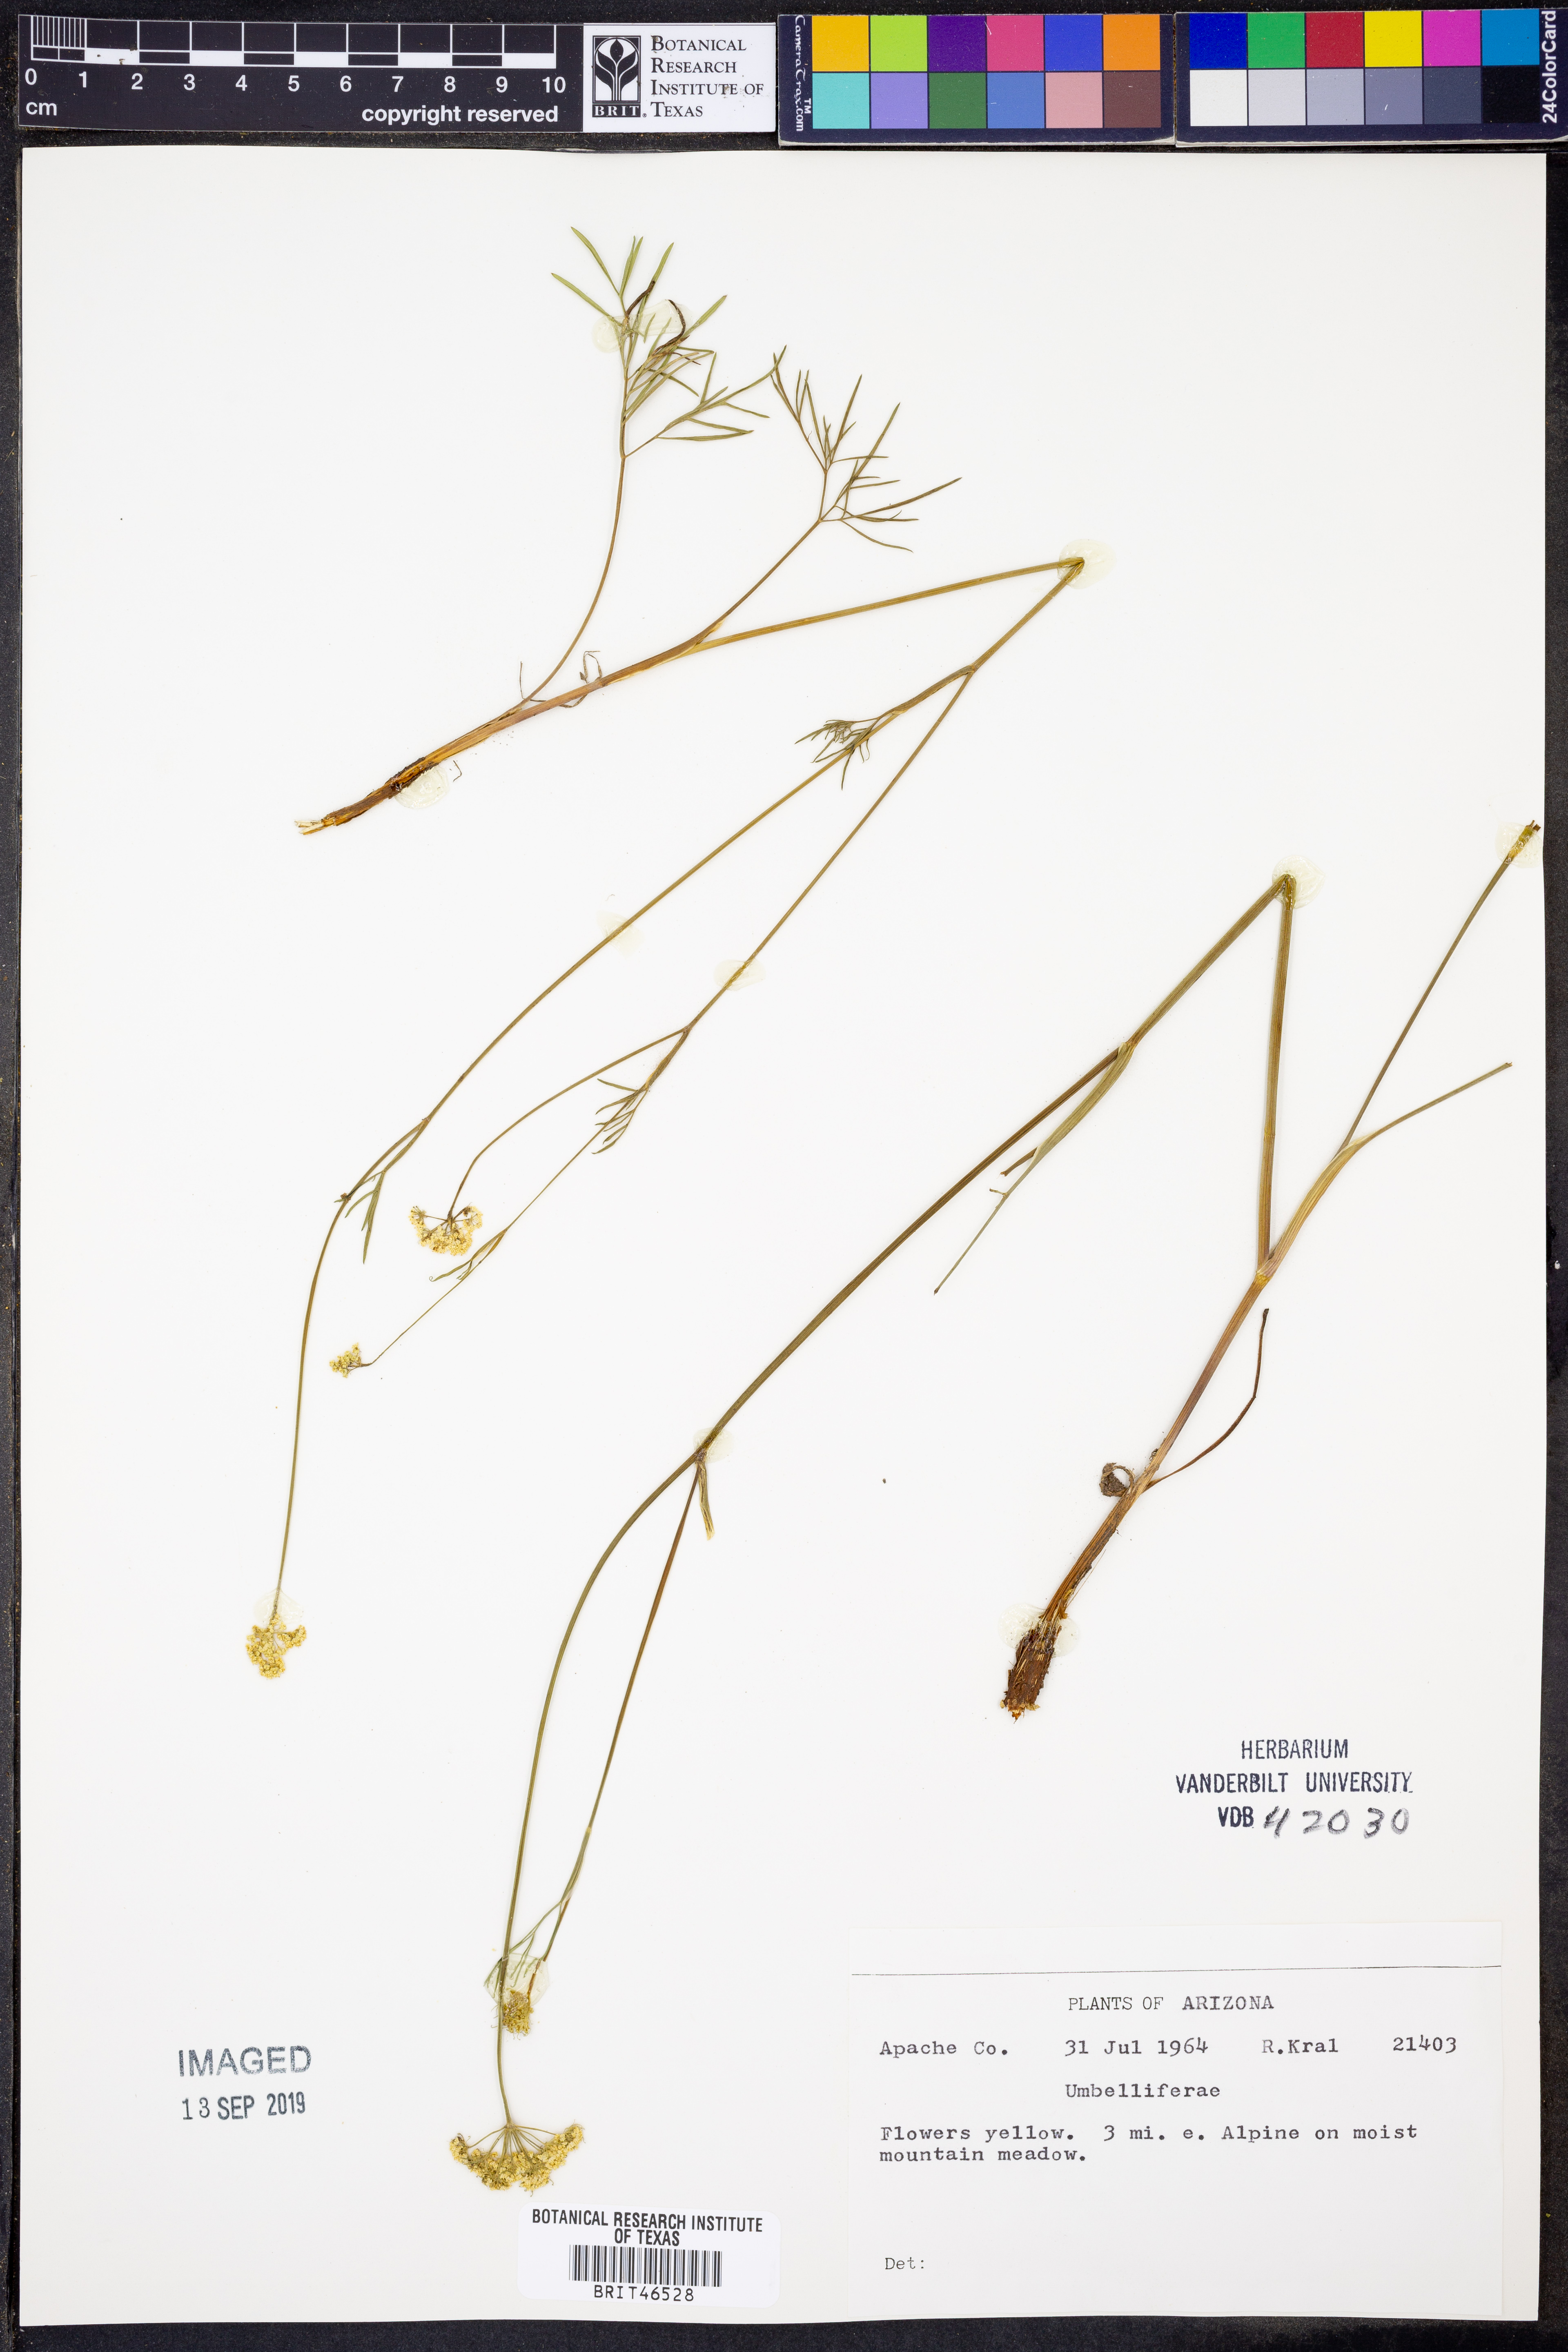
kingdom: Plantae
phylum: Tracheophyta
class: Magnoliopsida
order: Apiales
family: Apiaceae
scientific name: Apiaceae
